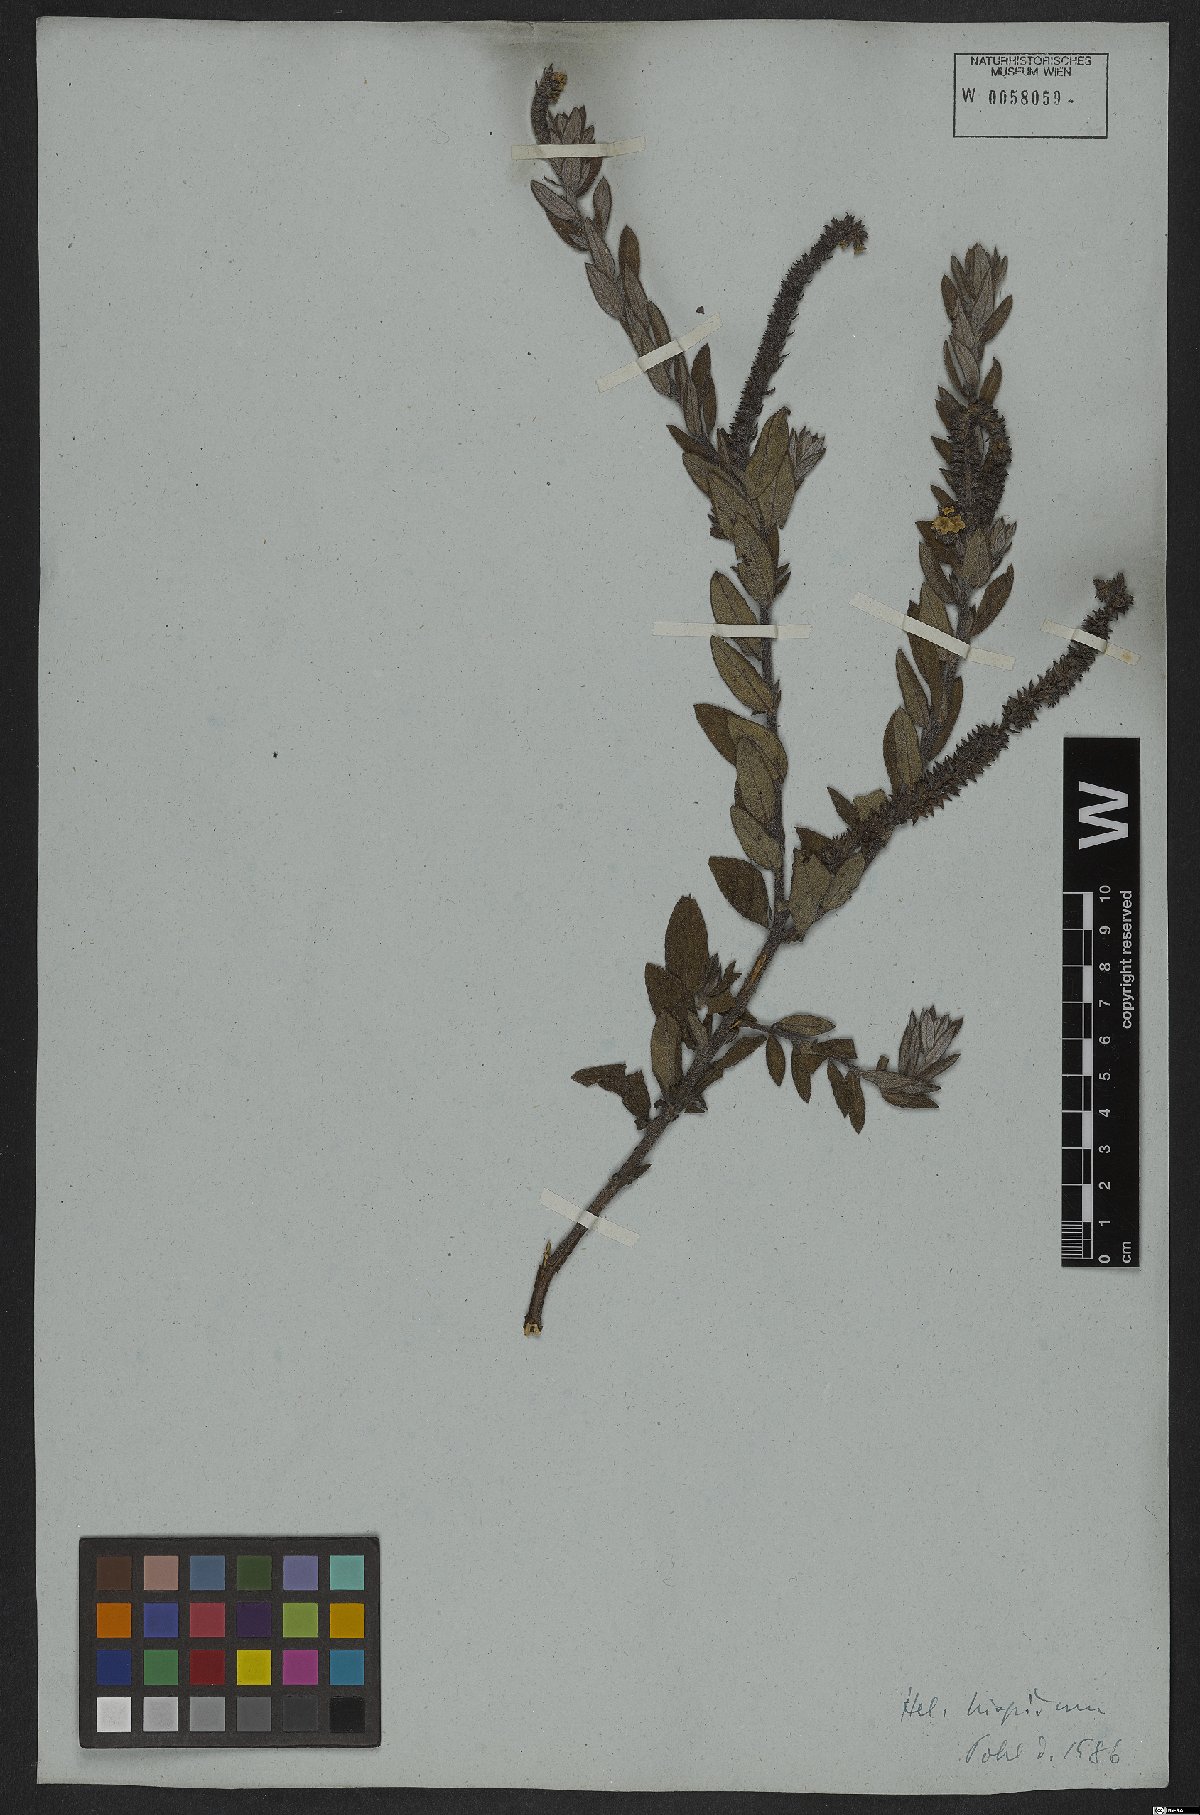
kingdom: Plantae
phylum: Tracheophyta
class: Magnoliopsida
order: Boraginales
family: Heliotropiaceae
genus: Euploca
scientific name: Euploca humilis
